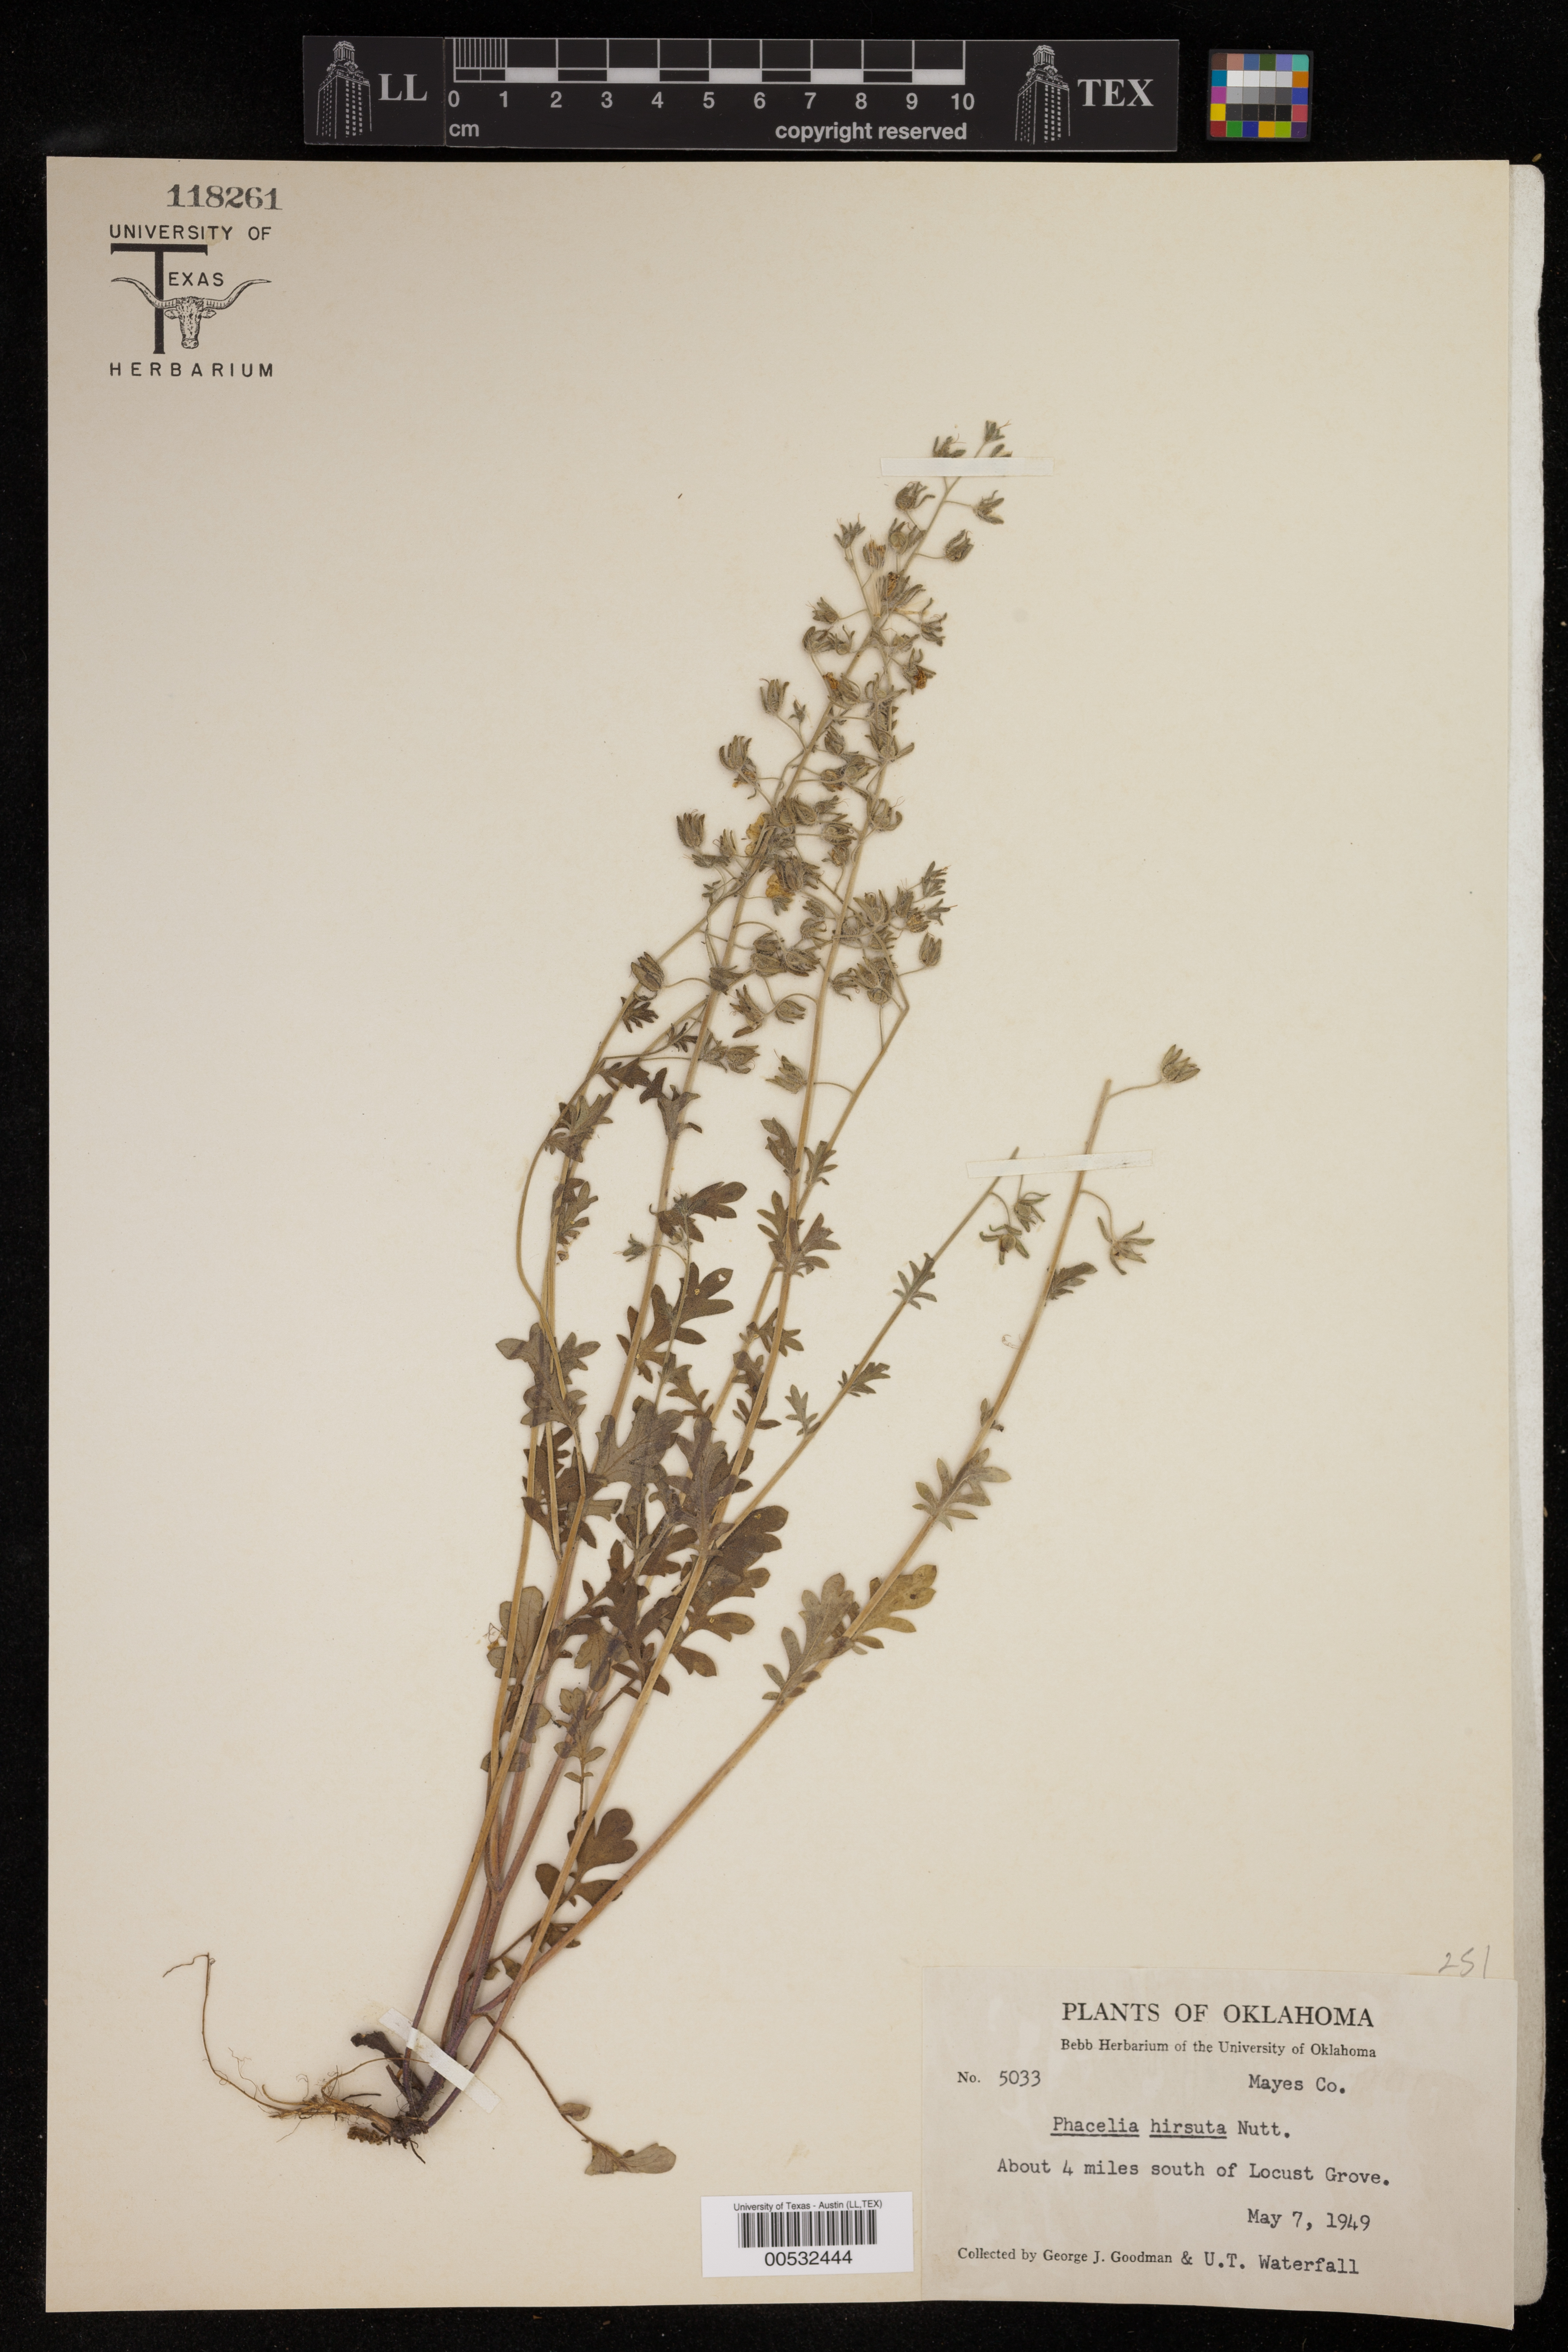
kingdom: Plantae
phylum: Tracheophyta
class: Magnoliopsida
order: Boraginales
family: Hydrophyllaceae
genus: Phacelia
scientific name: Phacelia hirsuta
